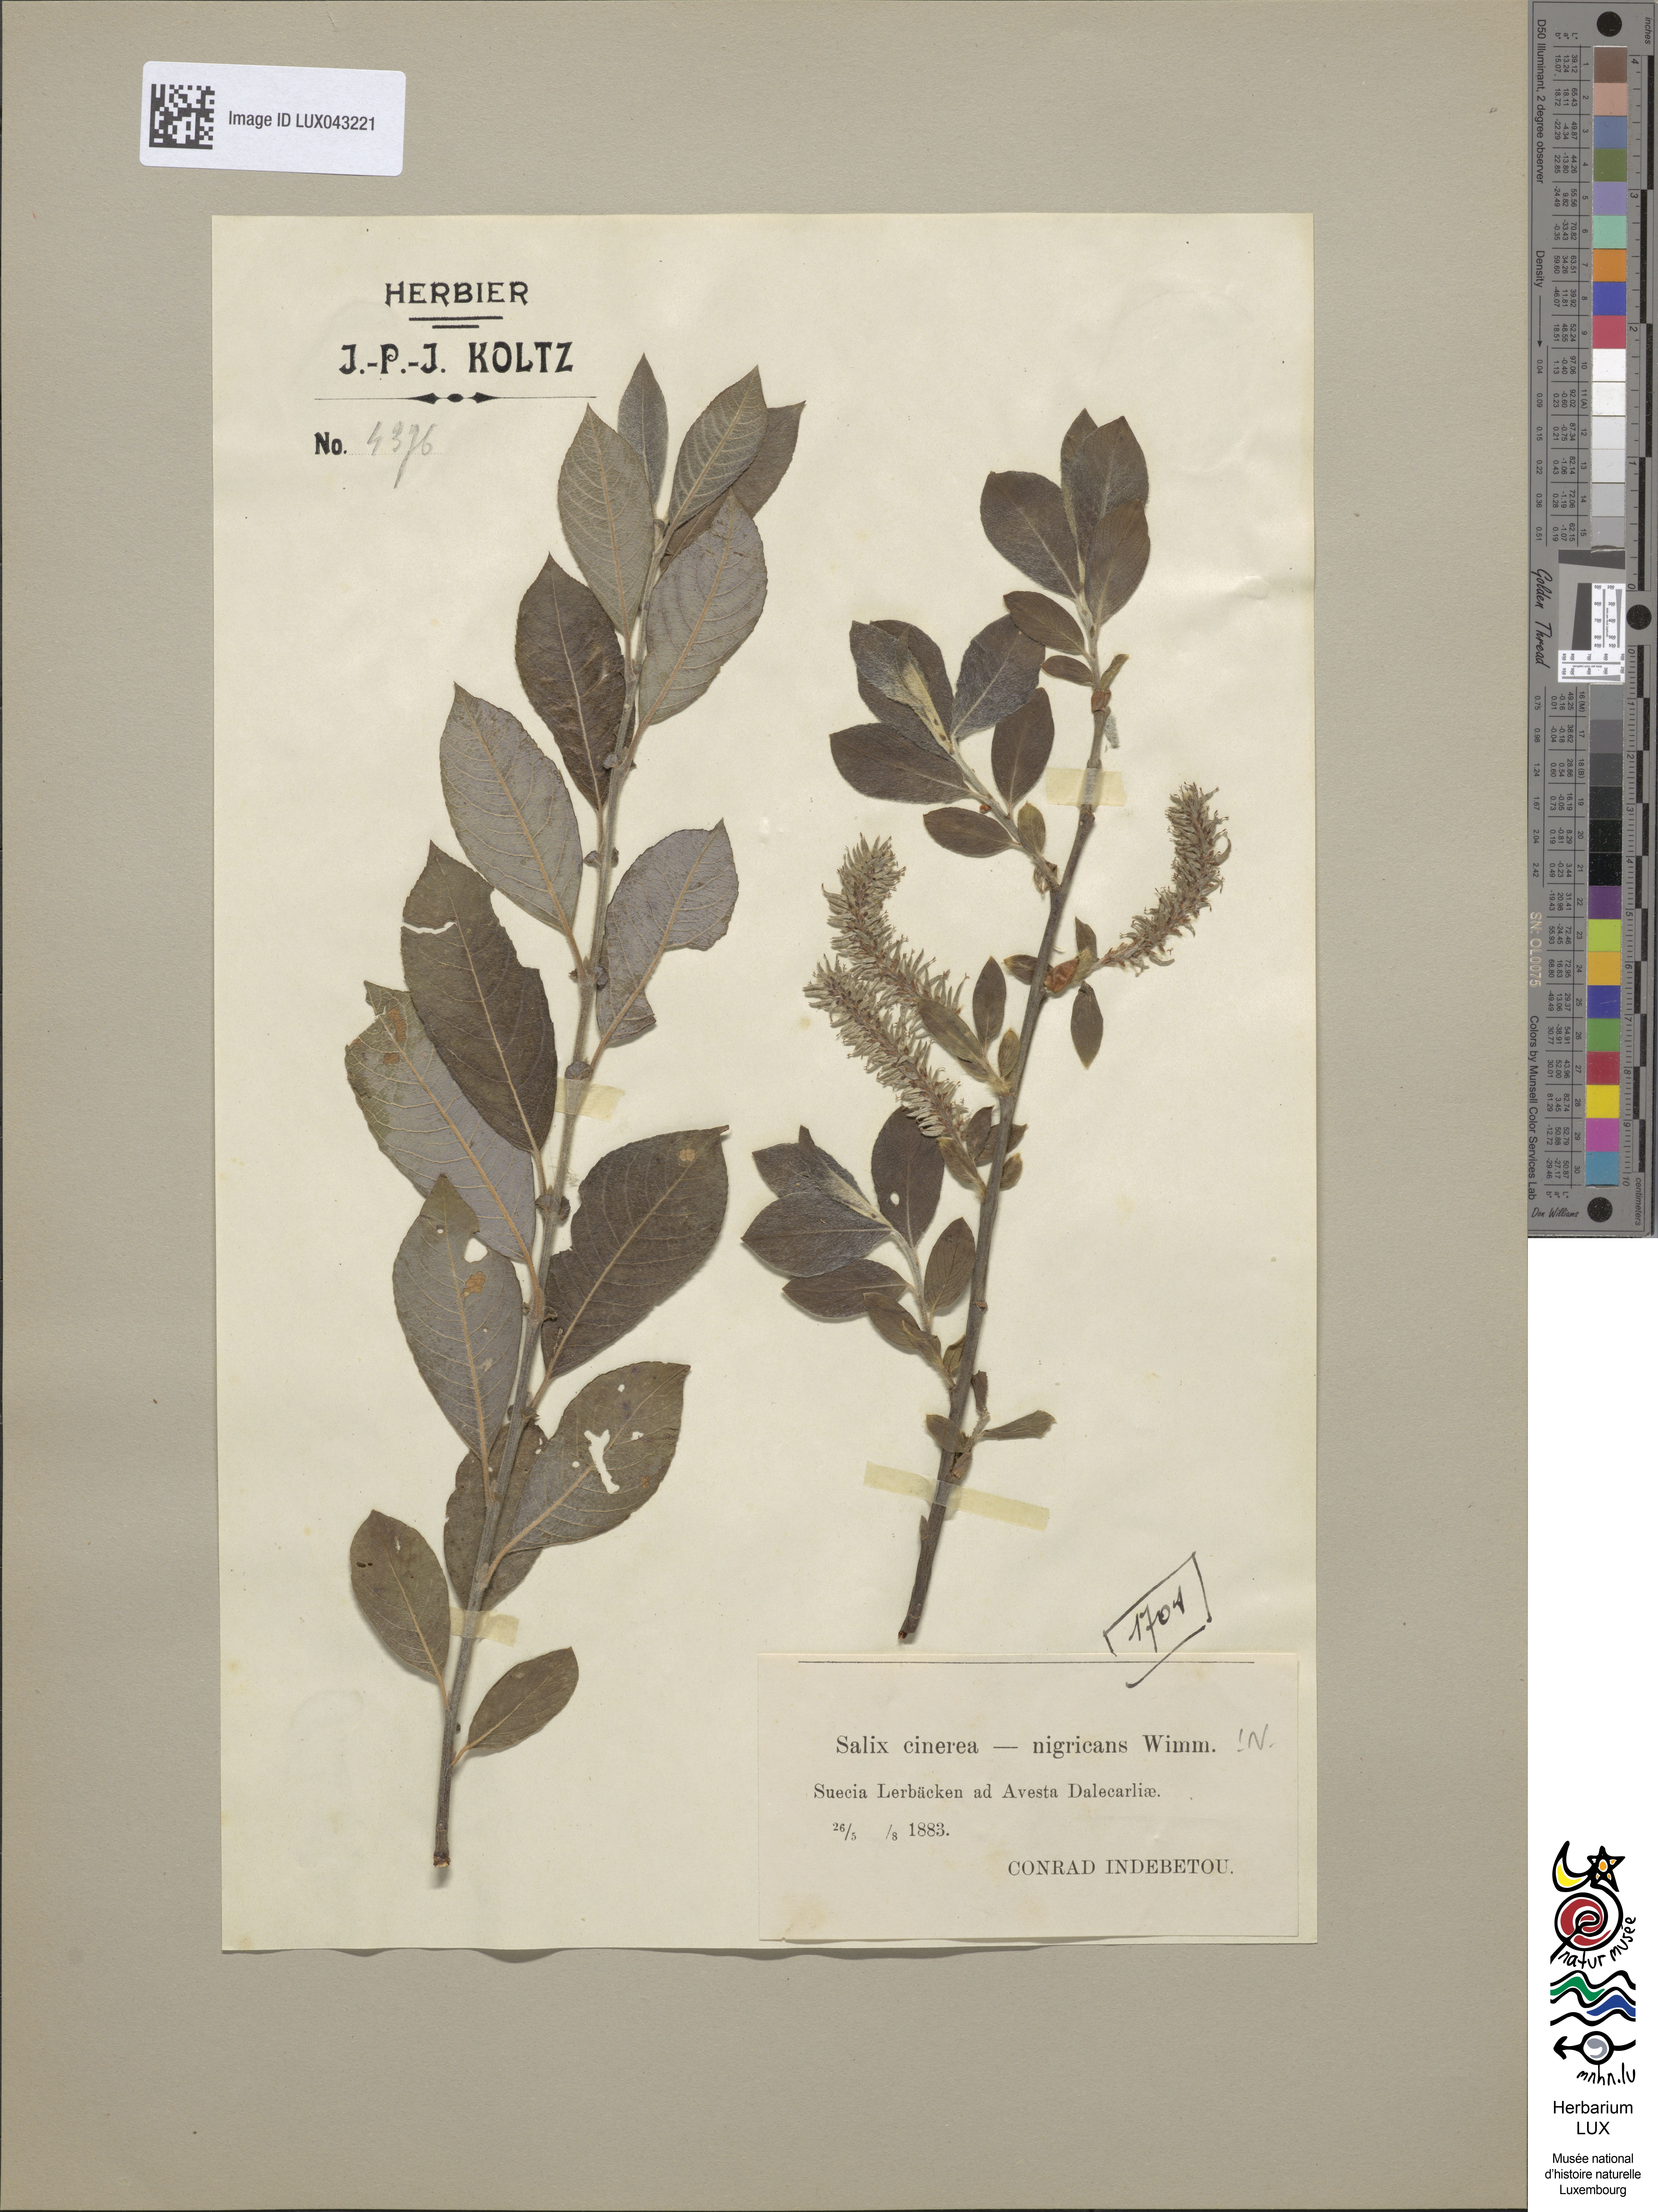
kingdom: Plantae
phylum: Tracheophyta
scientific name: Tracheophyta
